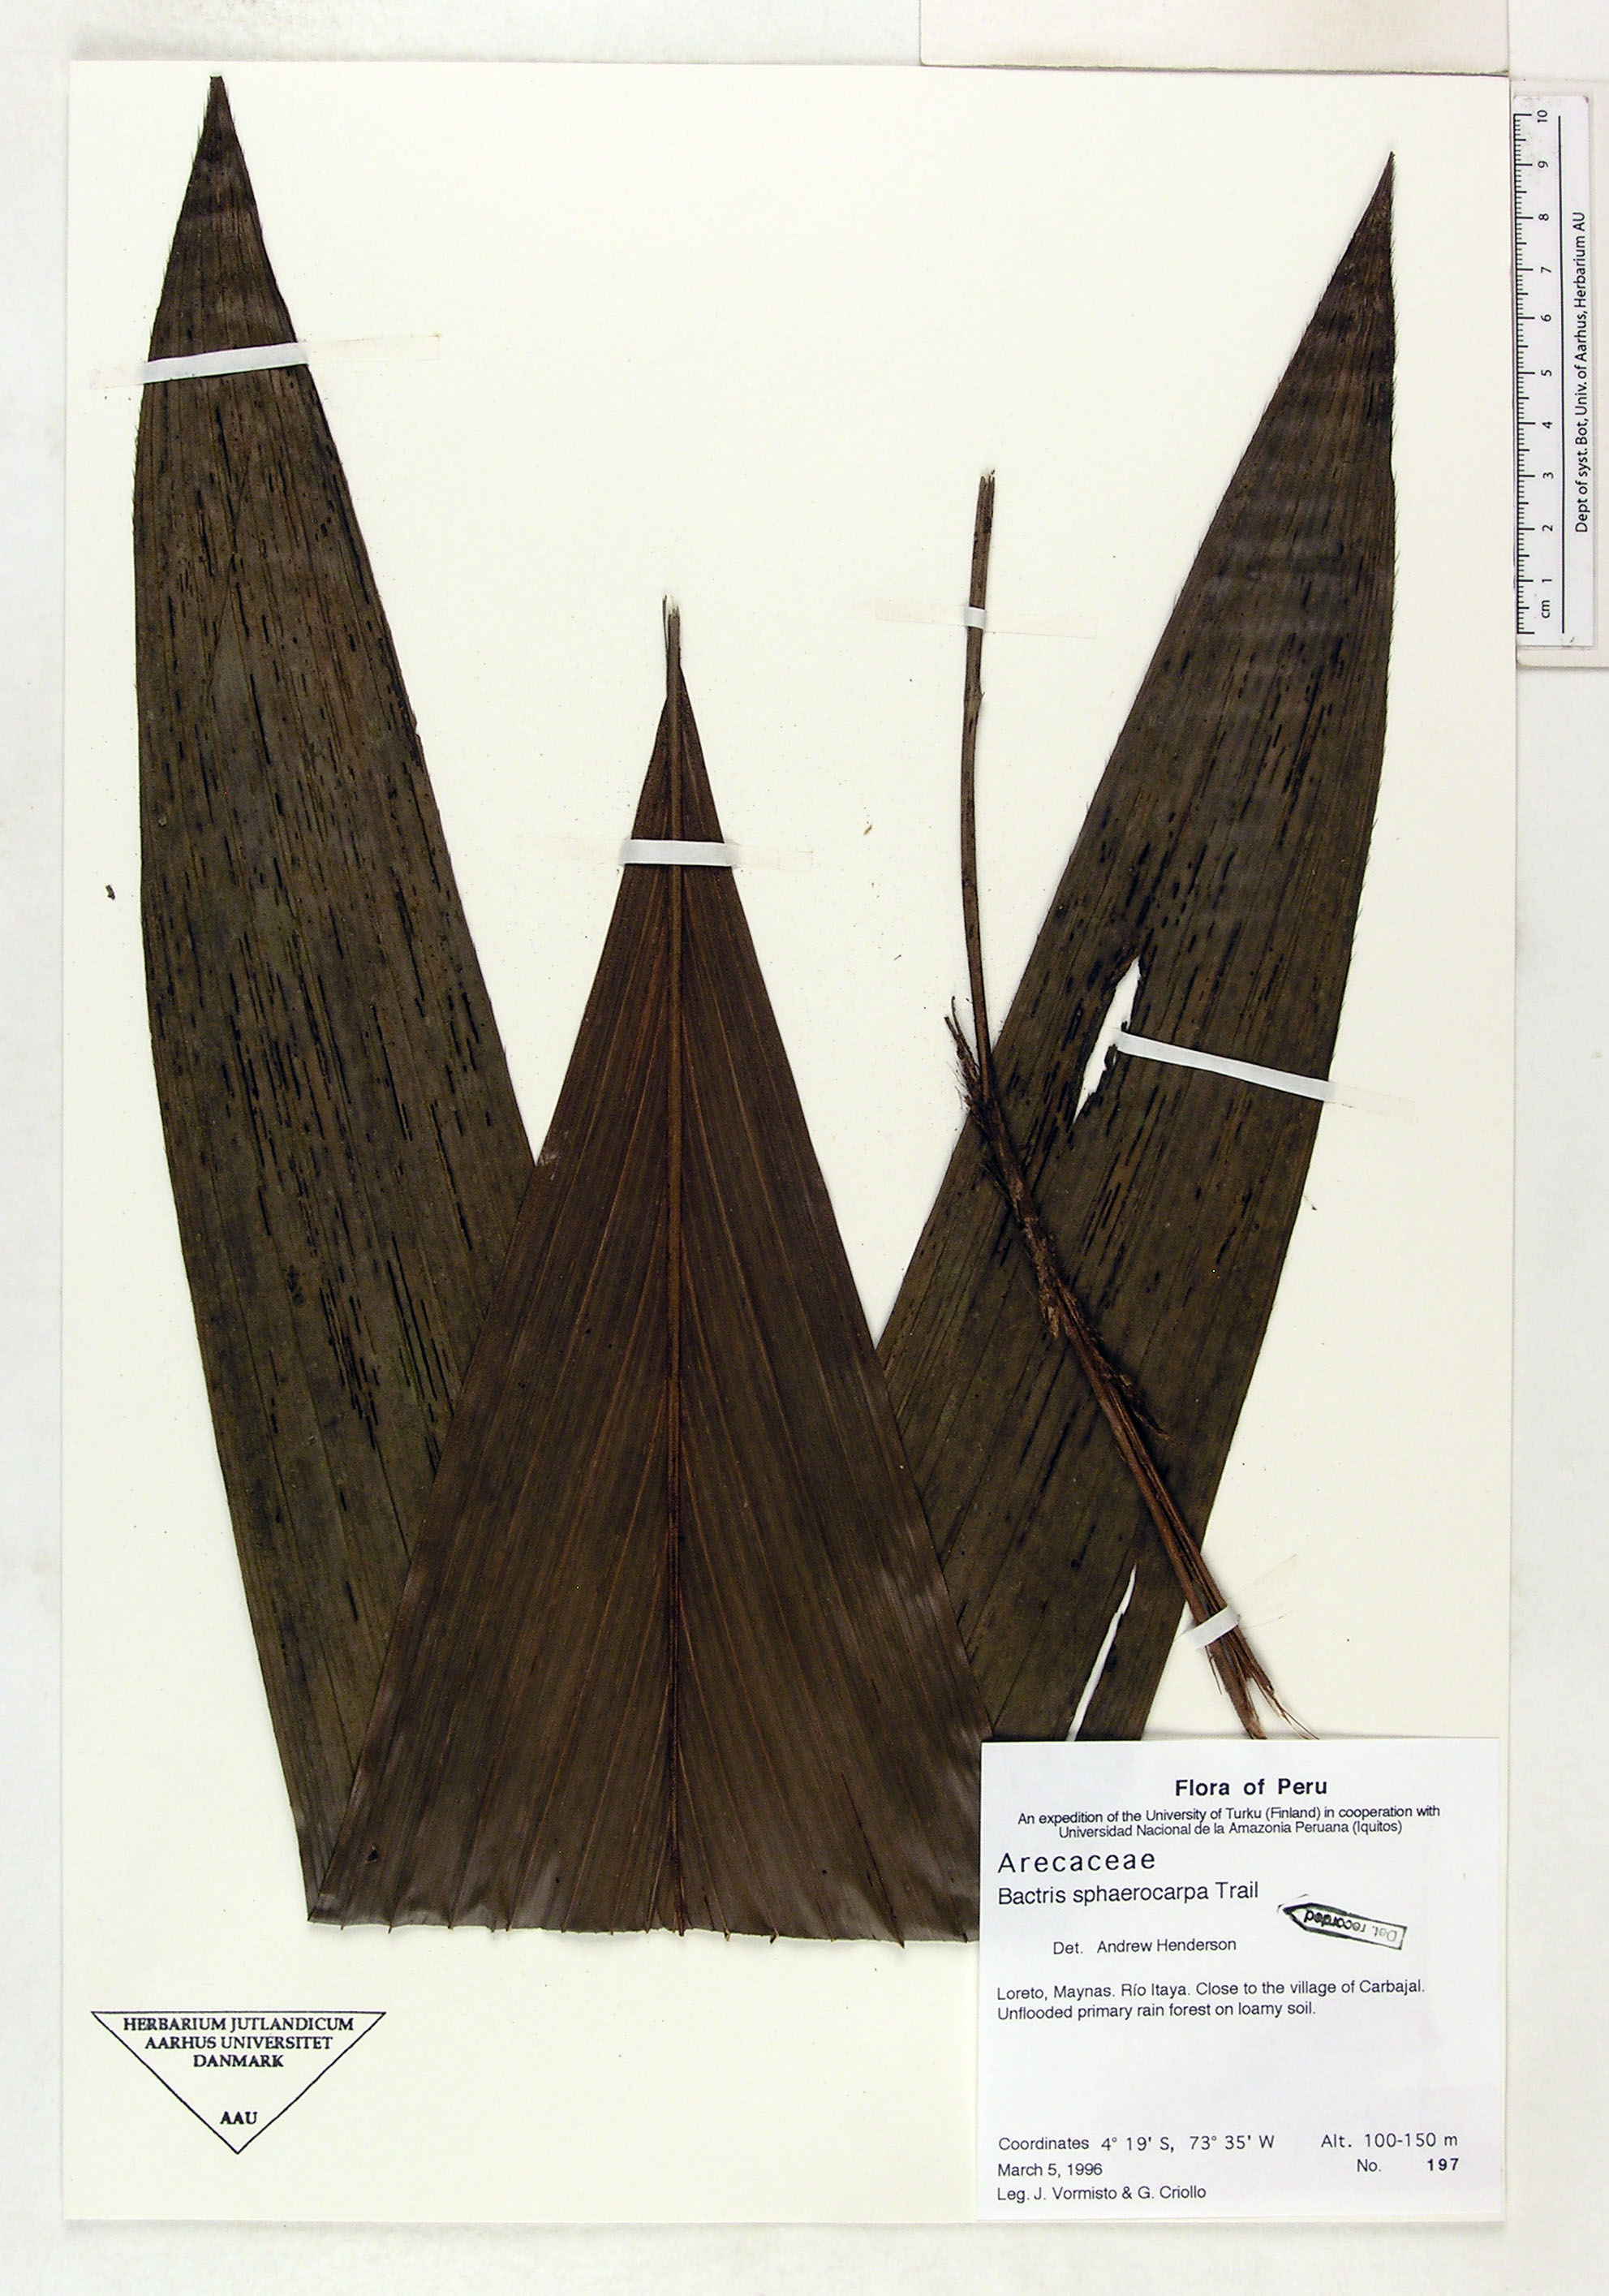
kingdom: Plantae
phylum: Tracheophyta
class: Liliopsida
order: Arecales
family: Arecaceae
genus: Bactris
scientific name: Bactris sphaerocarpa
